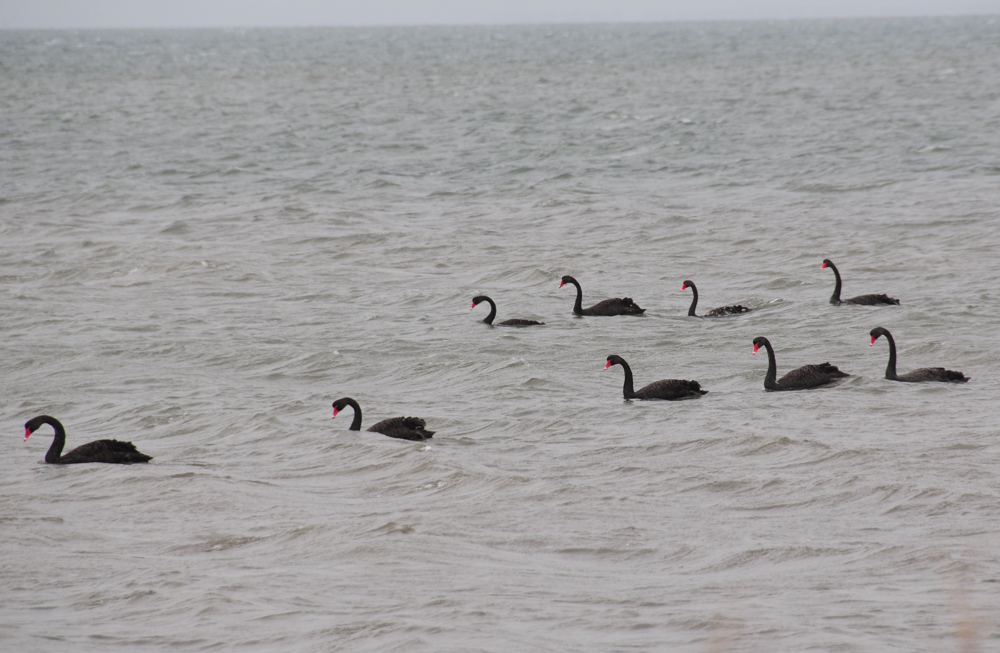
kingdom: Animalia
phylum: Chordata
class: Aves
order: Anseriformes
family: Anatidae
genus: Cygnus
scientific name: Cygnus atratus
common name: Black swan
